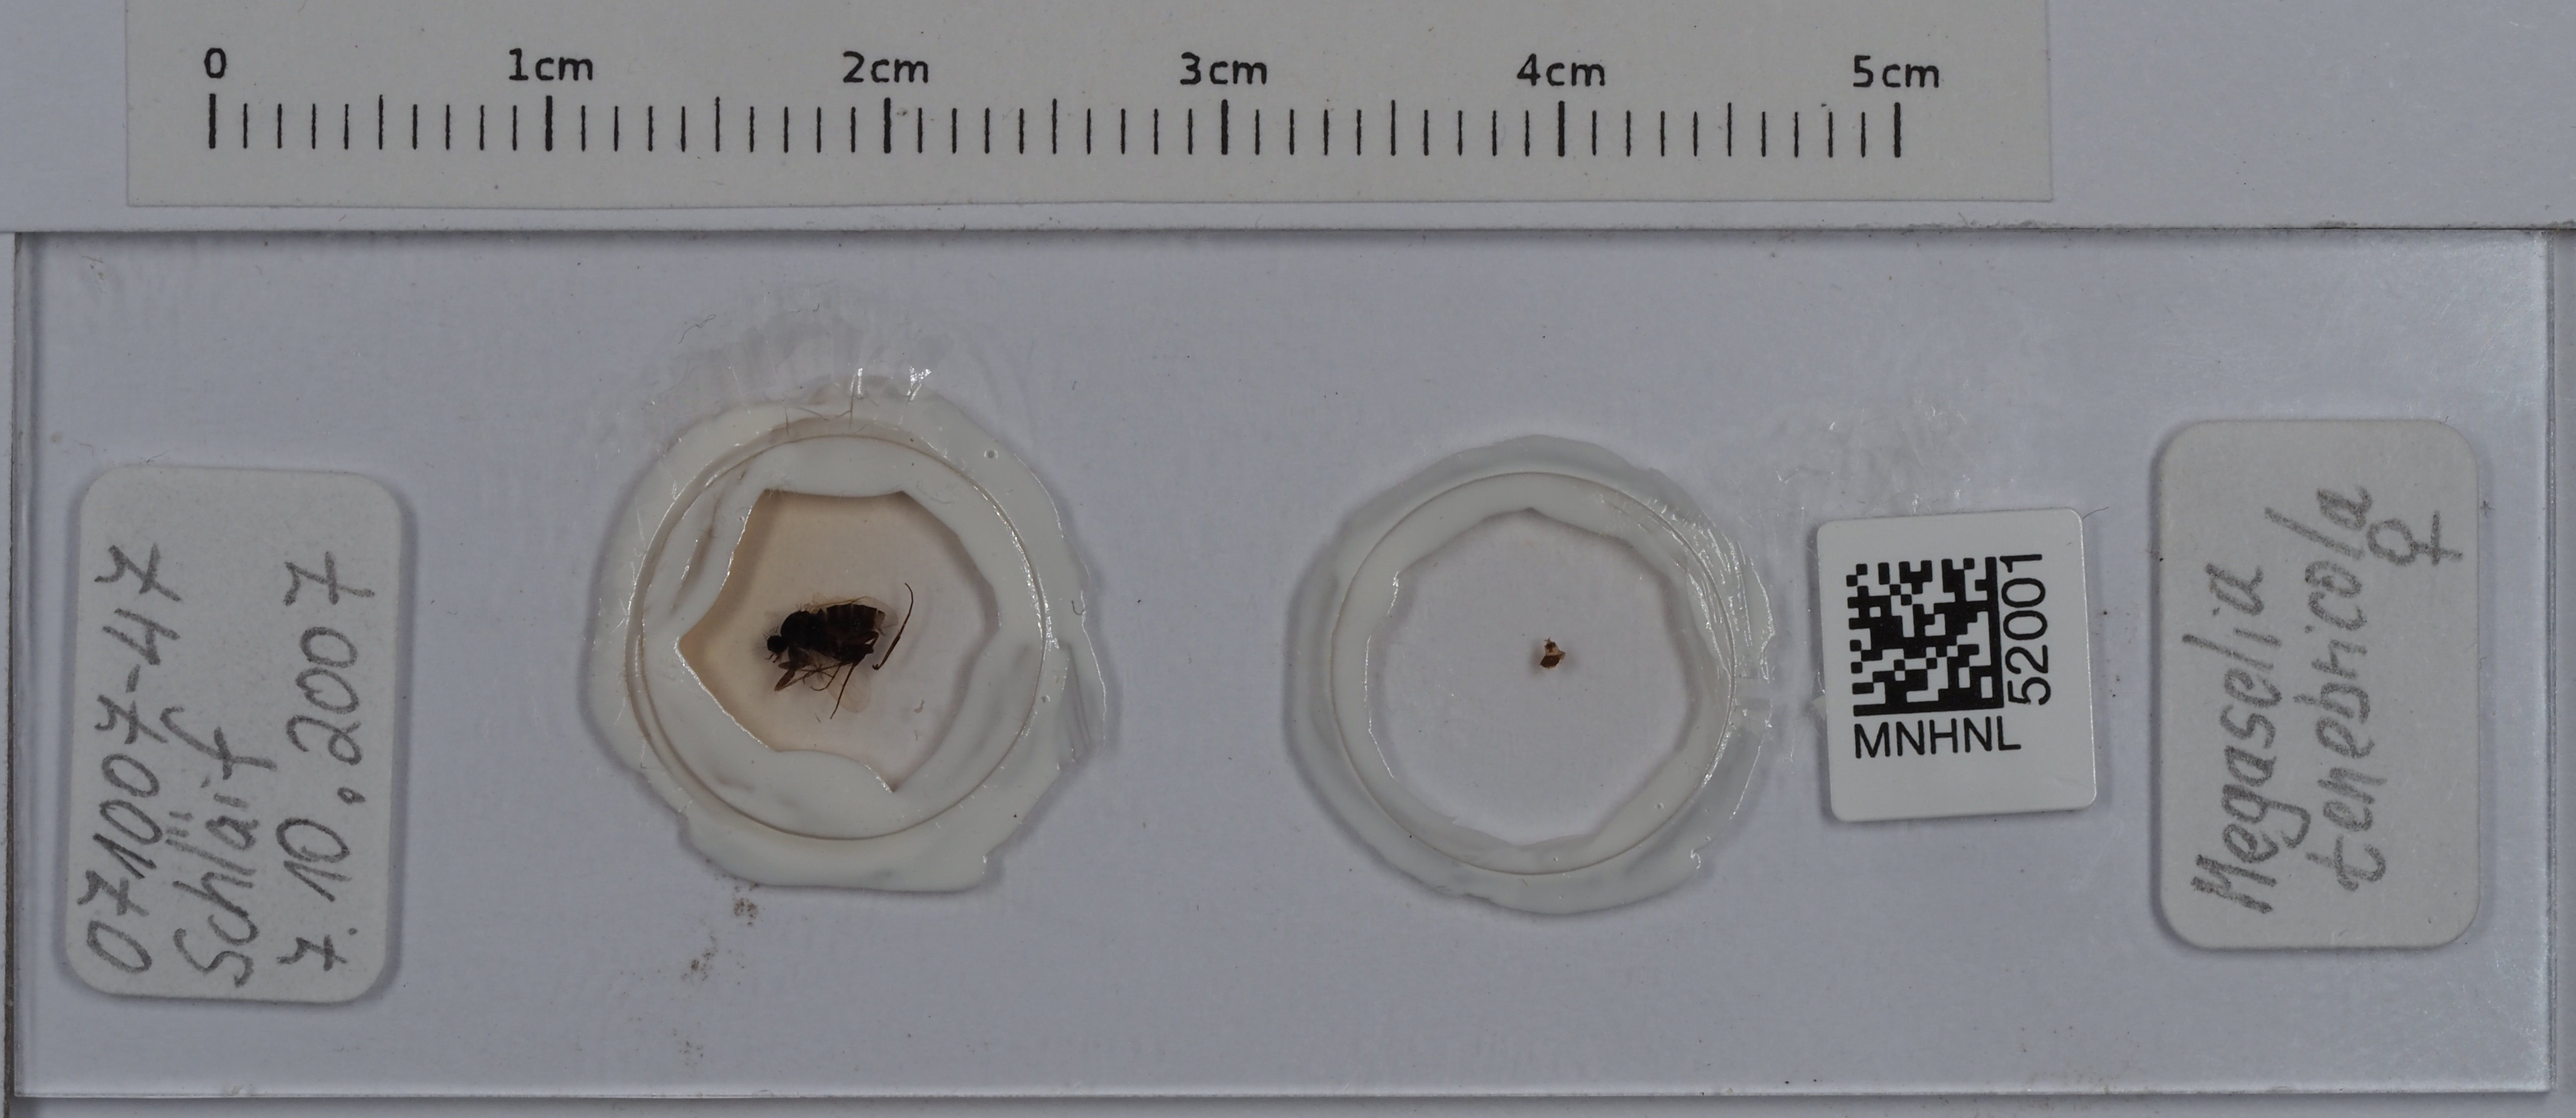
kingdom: Animalia
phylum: Arthropoda
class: Insecta
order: Diptera
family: Phoridae
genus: Megaselia
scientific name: Megaselia tenebricola
